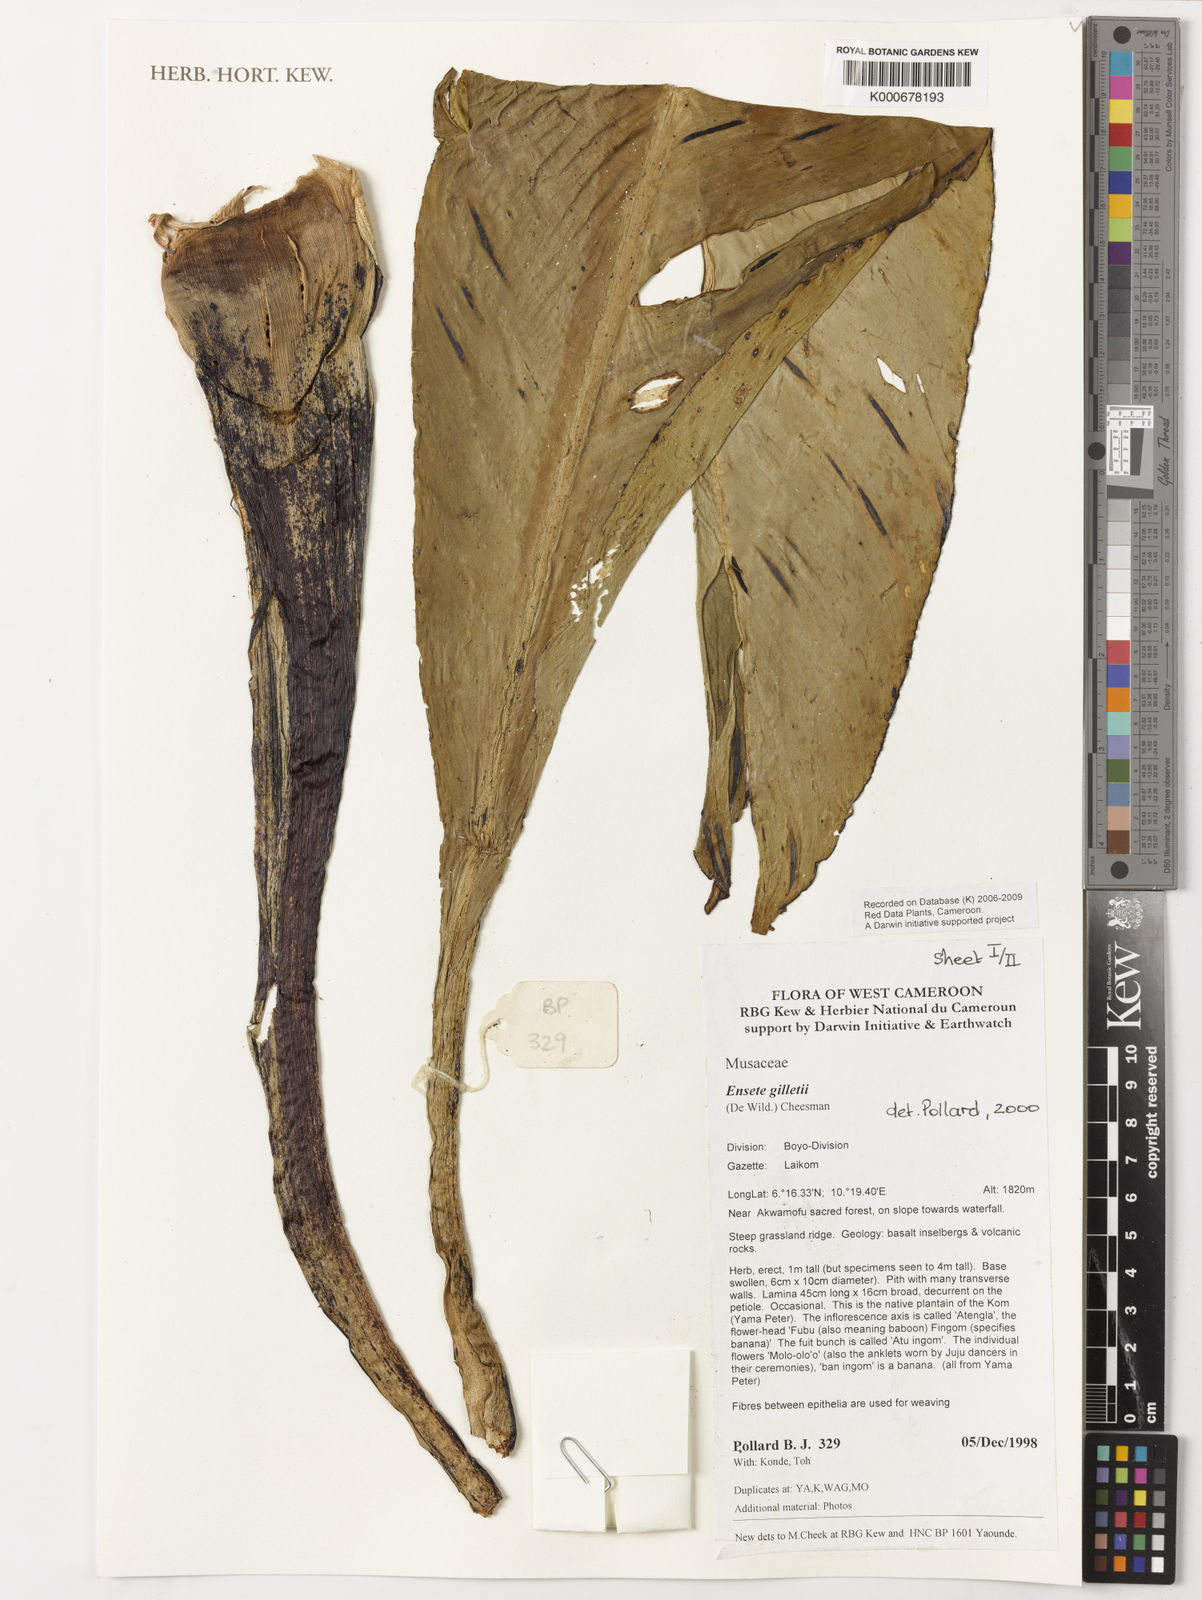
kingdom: Plantae
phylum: Tracheophyta
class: Liliopsida
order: Zingiberales
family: Musaceae
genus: Ensete
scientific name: Ensete livingstonianum
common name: Livingston's banana
